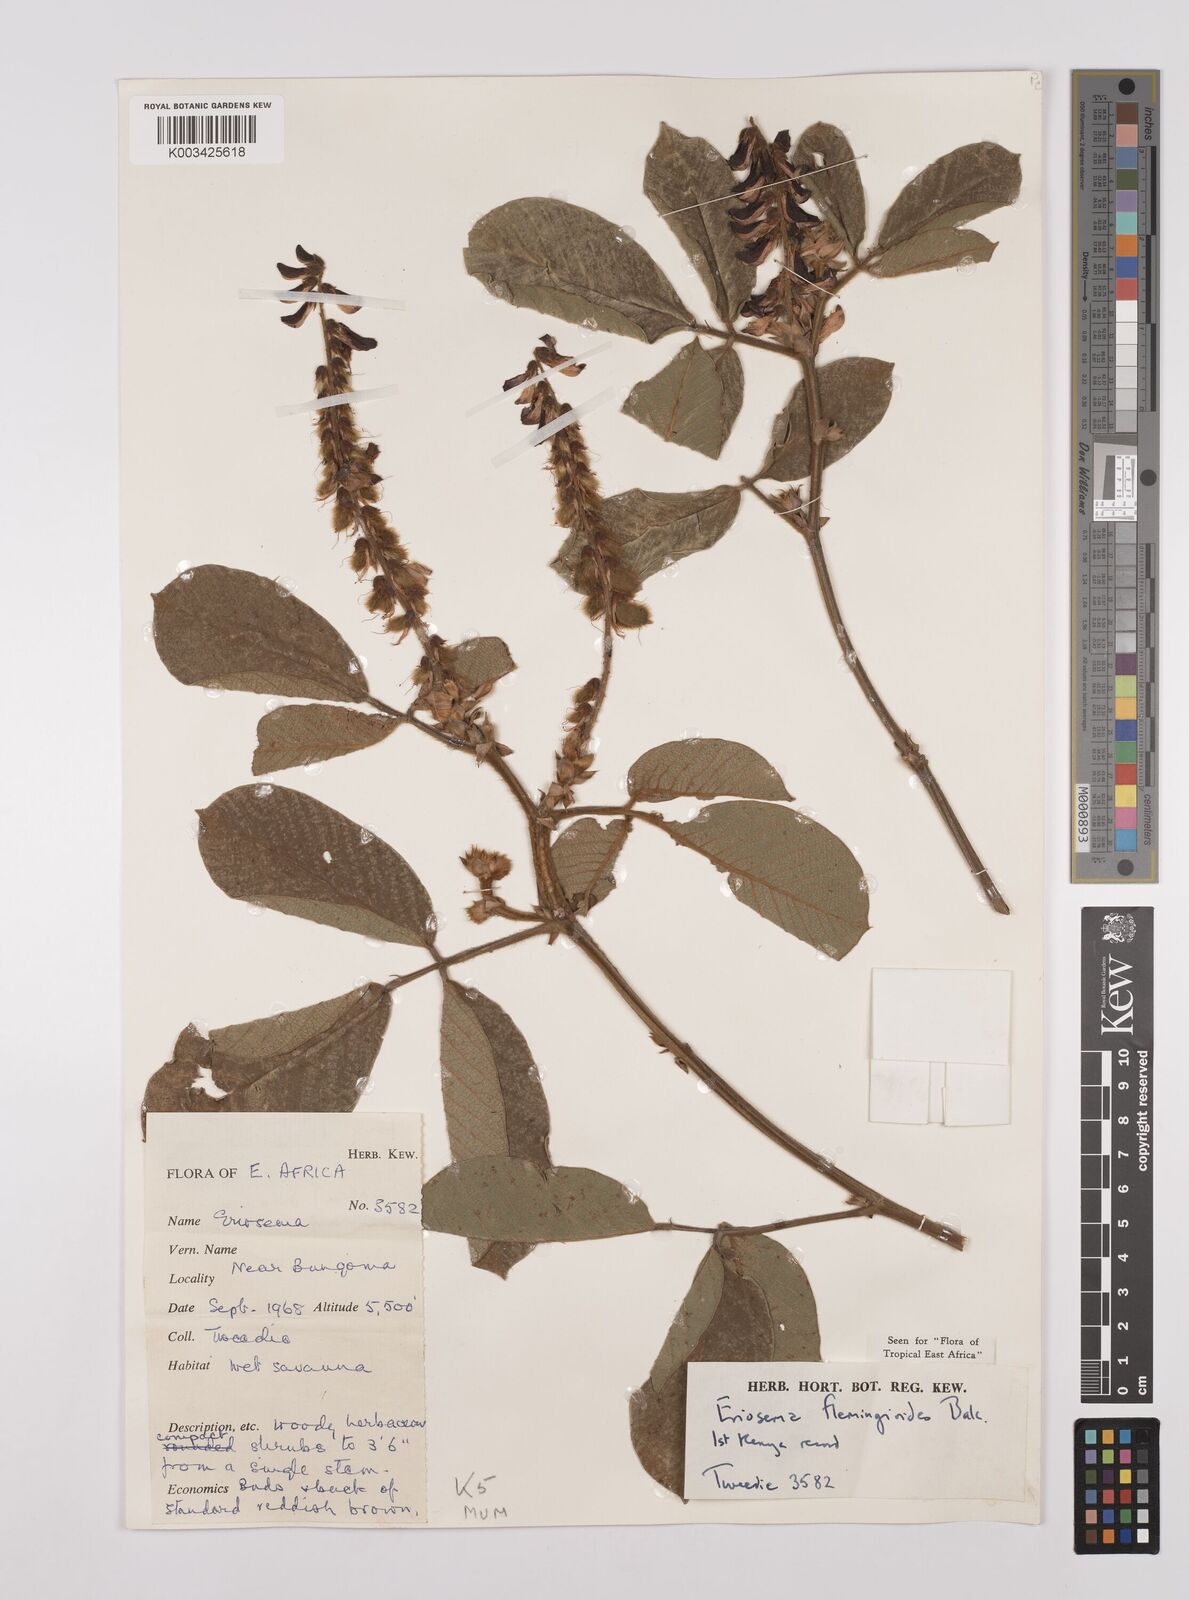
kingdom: Plantae
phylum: Tracheophyta
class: Magnoliopsida
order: Fabales
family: Fabaceae
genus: Eriosema
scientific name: Eriosema flemingioides
